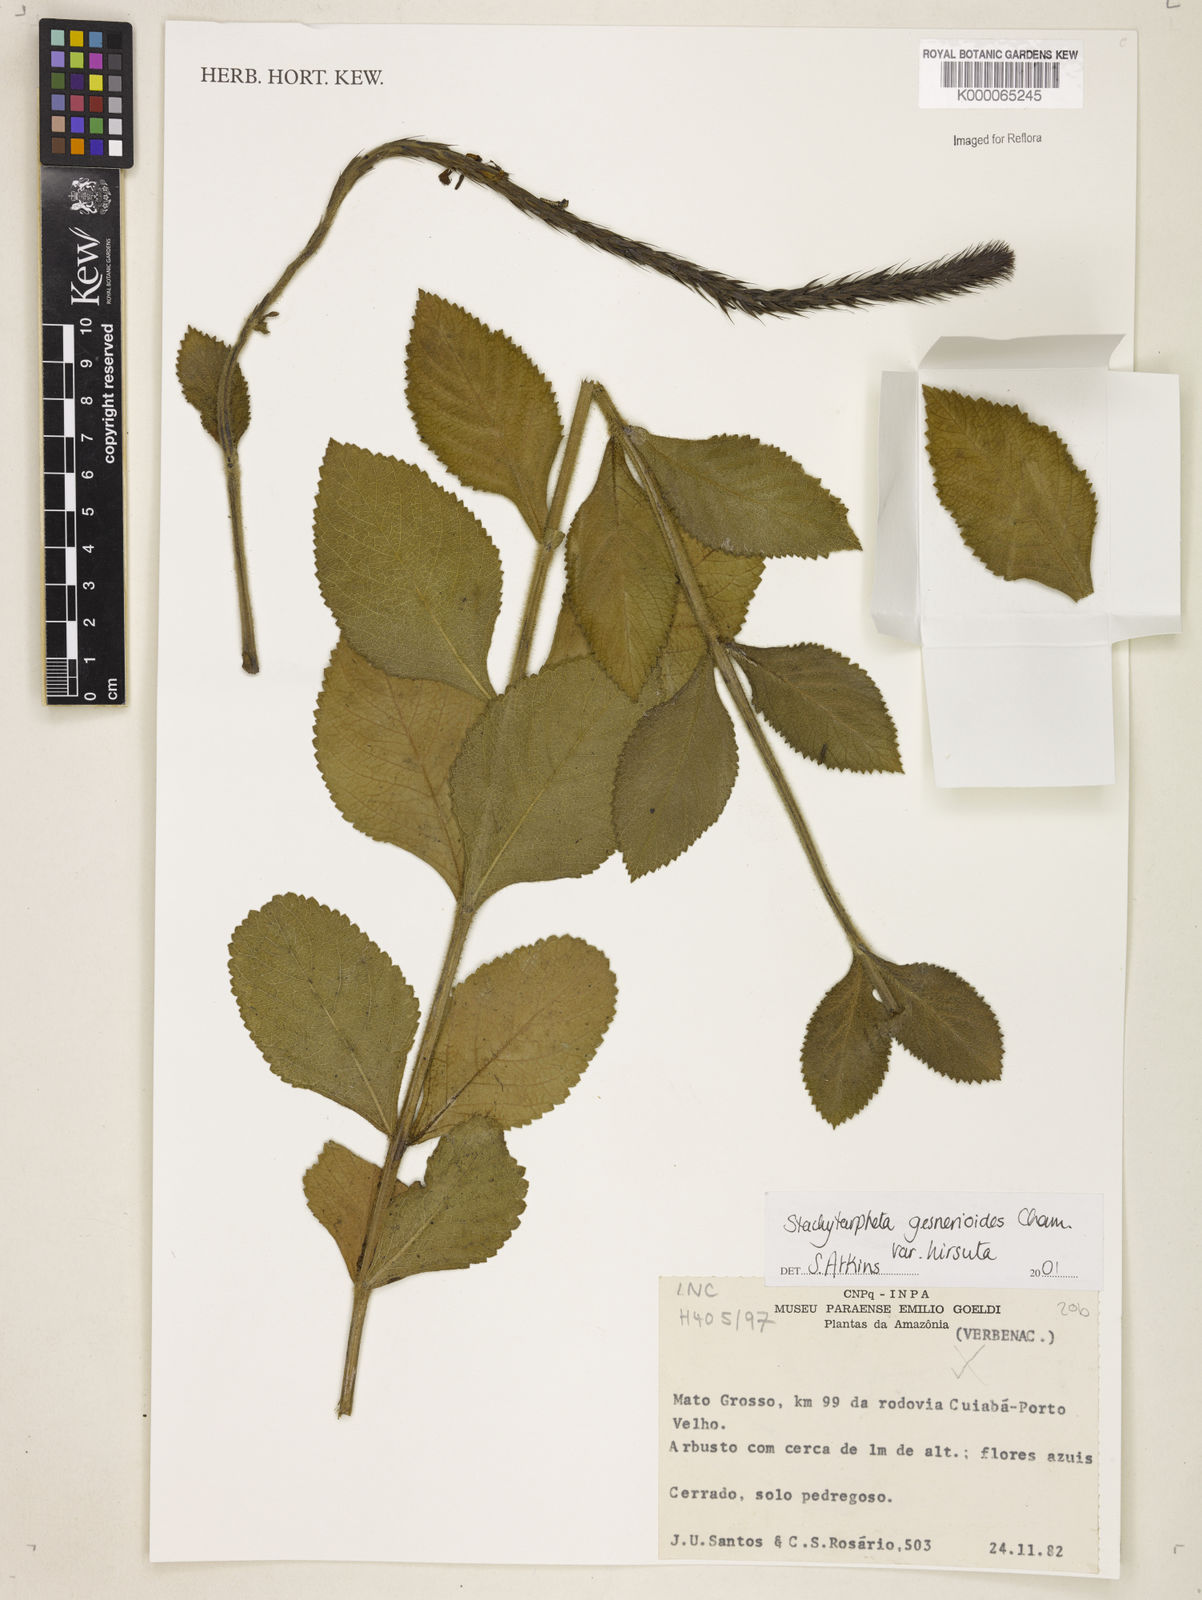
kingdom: Plantae
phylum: Tracheophyta
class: Magnoliopsida
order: Lamiales
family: Verbenaceae
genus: Stachytarpheta
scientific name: Stachytarpheta gesnerioides
